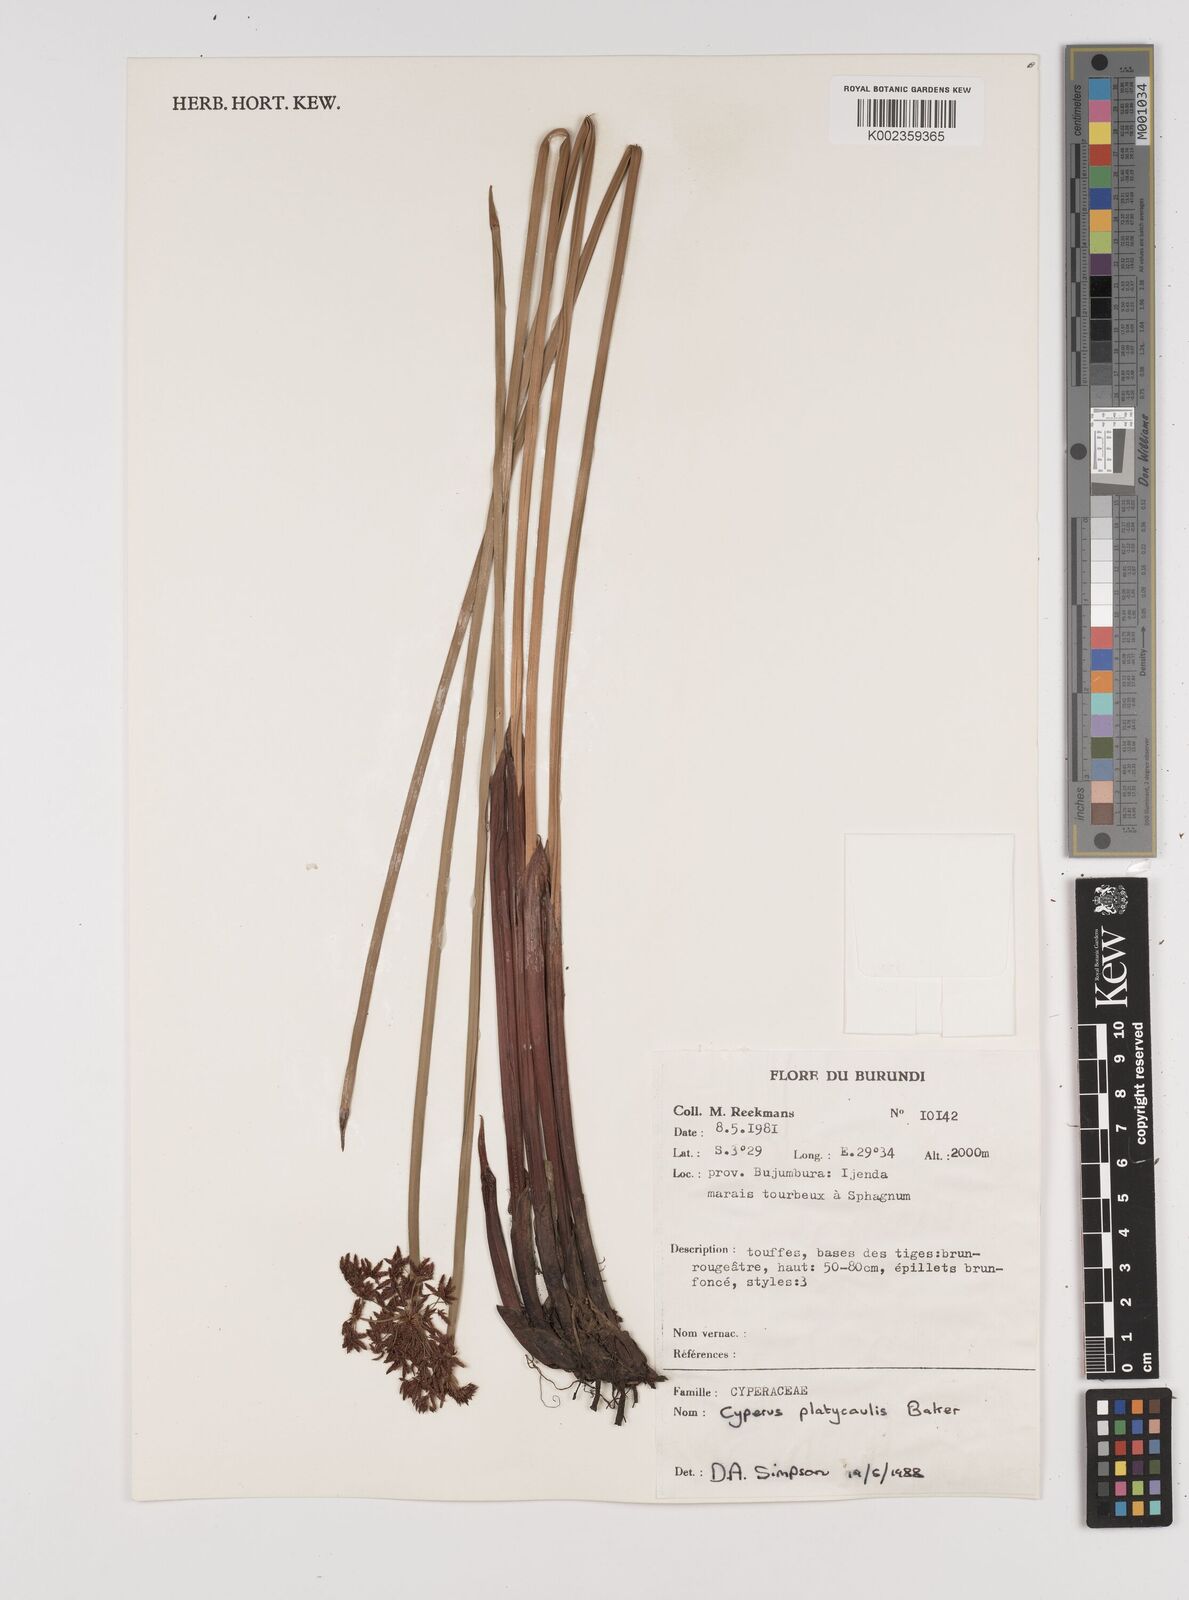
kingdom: Plantae
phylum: Tracheophyta
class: Liliopsida
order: Poales
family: Cyperaceae
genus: Cyperus
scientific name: Cyperus platycaulis
